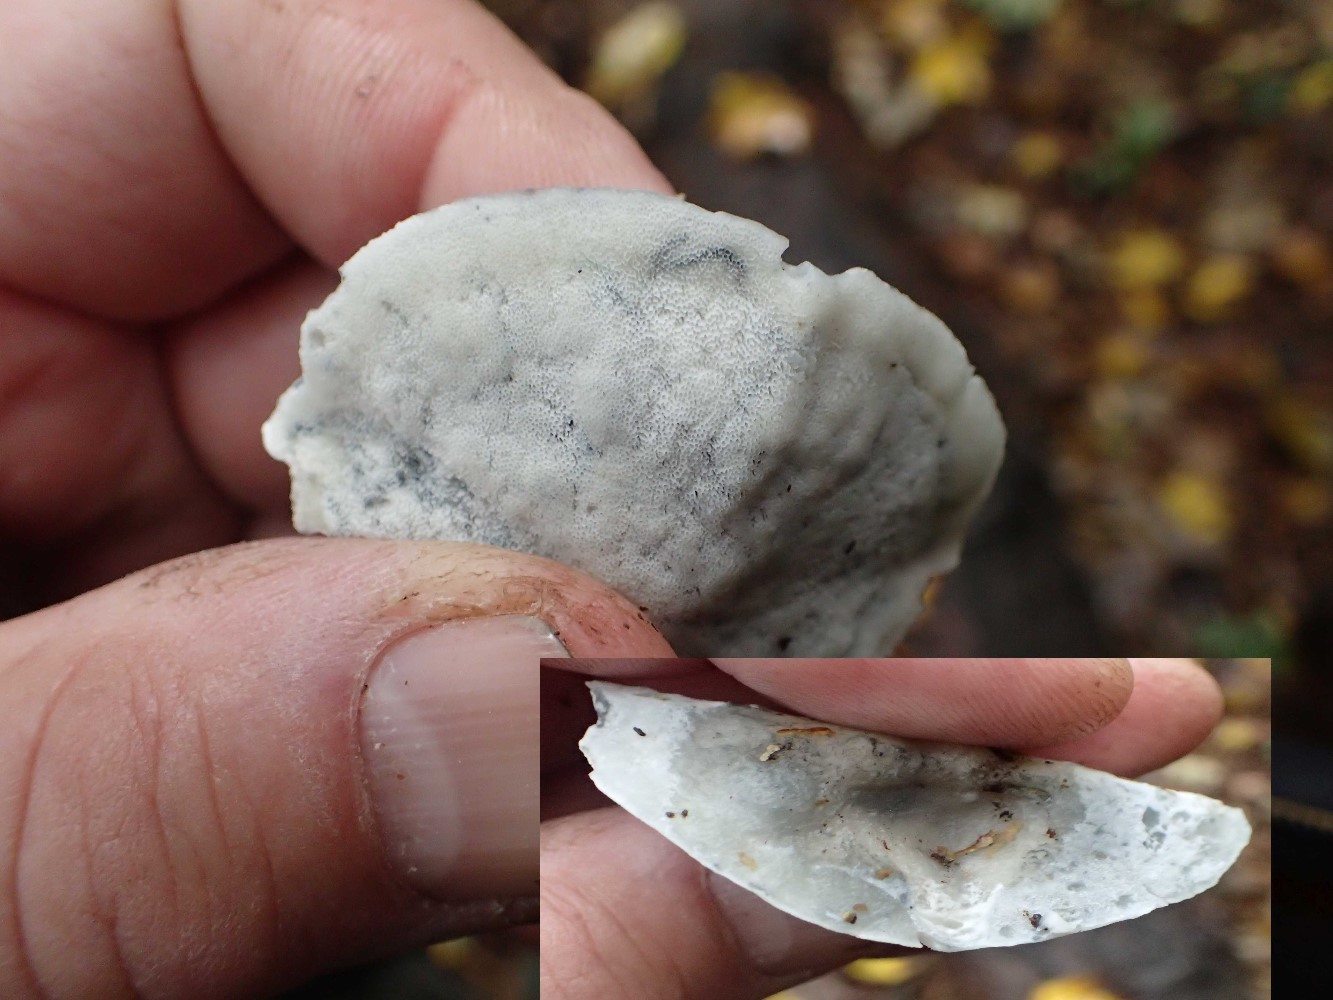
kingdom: Fungi
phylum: Basidiomycota
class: Agaricomycetes
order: Polyporales
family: Polyporaceae
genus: Cyanosporus
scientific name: Cyanosporus caesius
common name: blålig kødporesvamp
